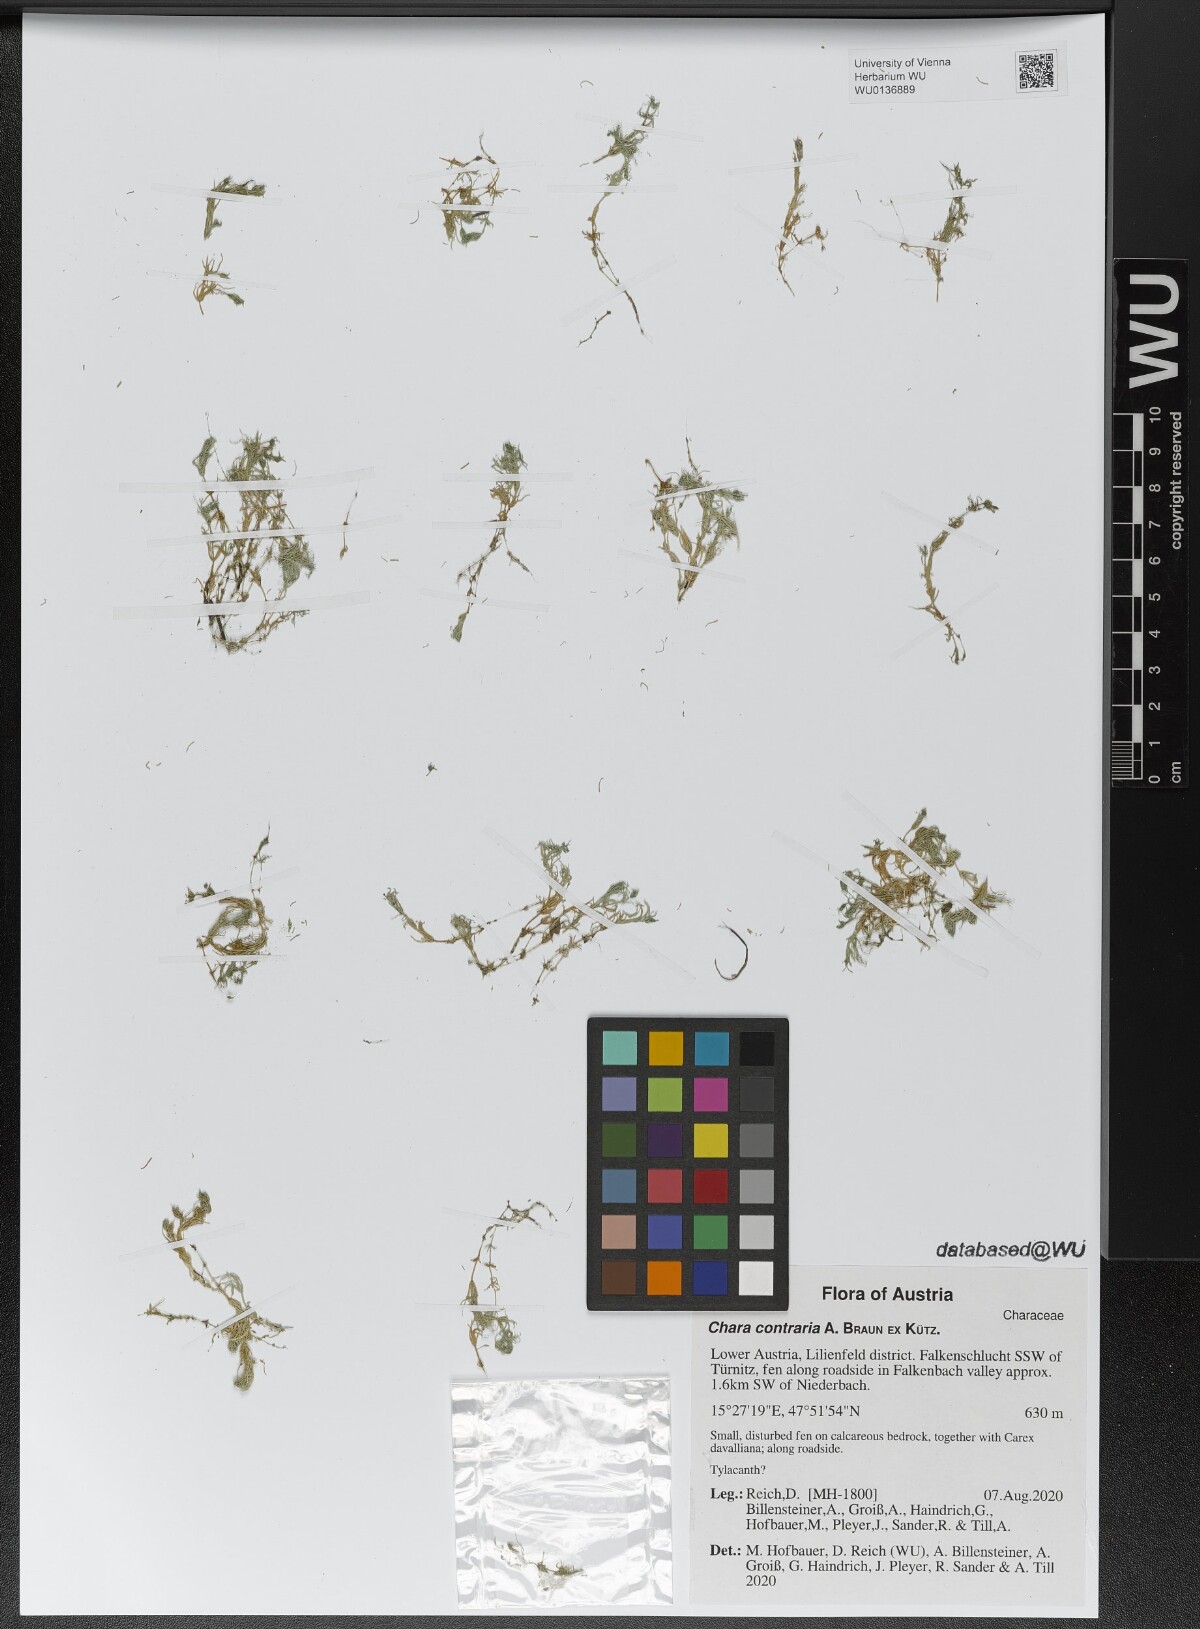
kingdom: Plantae
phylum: Charophyta
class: Charophyceae
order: Charales
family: Characeae
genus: Chara
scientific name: Chara contraria
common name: Opposite stonewort
